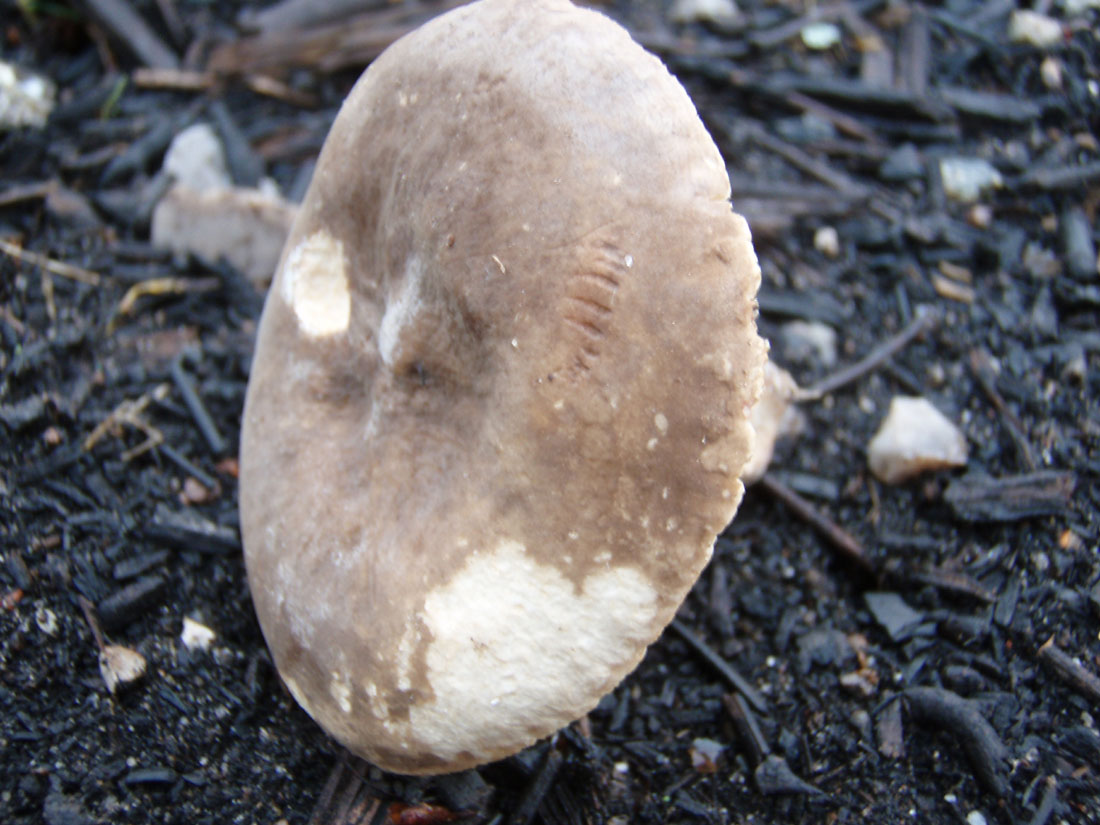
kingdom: Fungi
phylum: Basidiomycota
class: Agaricomycetes
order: Russulales
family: Russulaceae
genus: Lactarius
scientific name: Lactarius ruginosus
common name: gråbrun mælkehat
